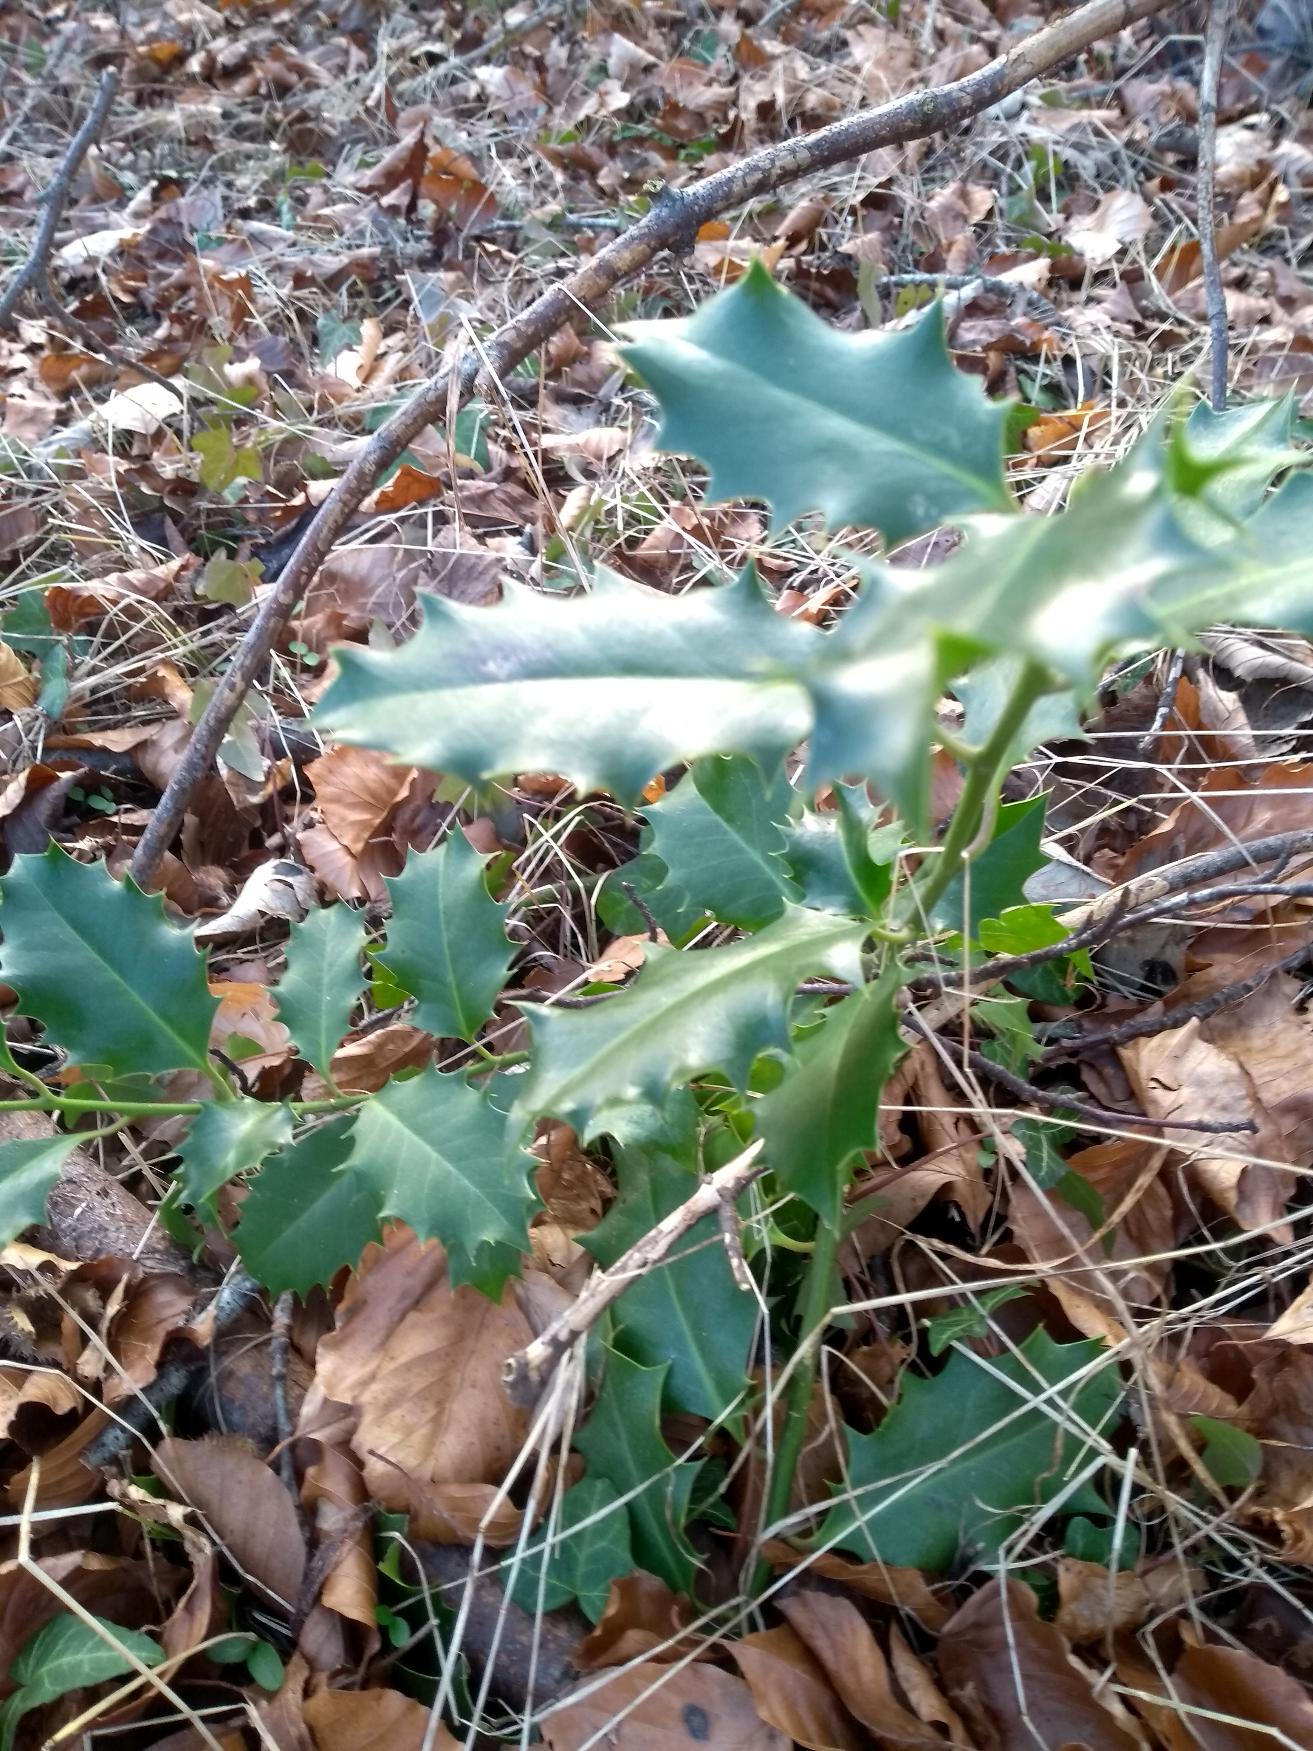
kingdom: Plantae
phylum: Tracheophyta
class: Magnoliopsida
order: Aquifoliales
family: Aquifoliaceae
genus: Ilex
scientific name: Ilex aquifolium
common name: Kristtorn
